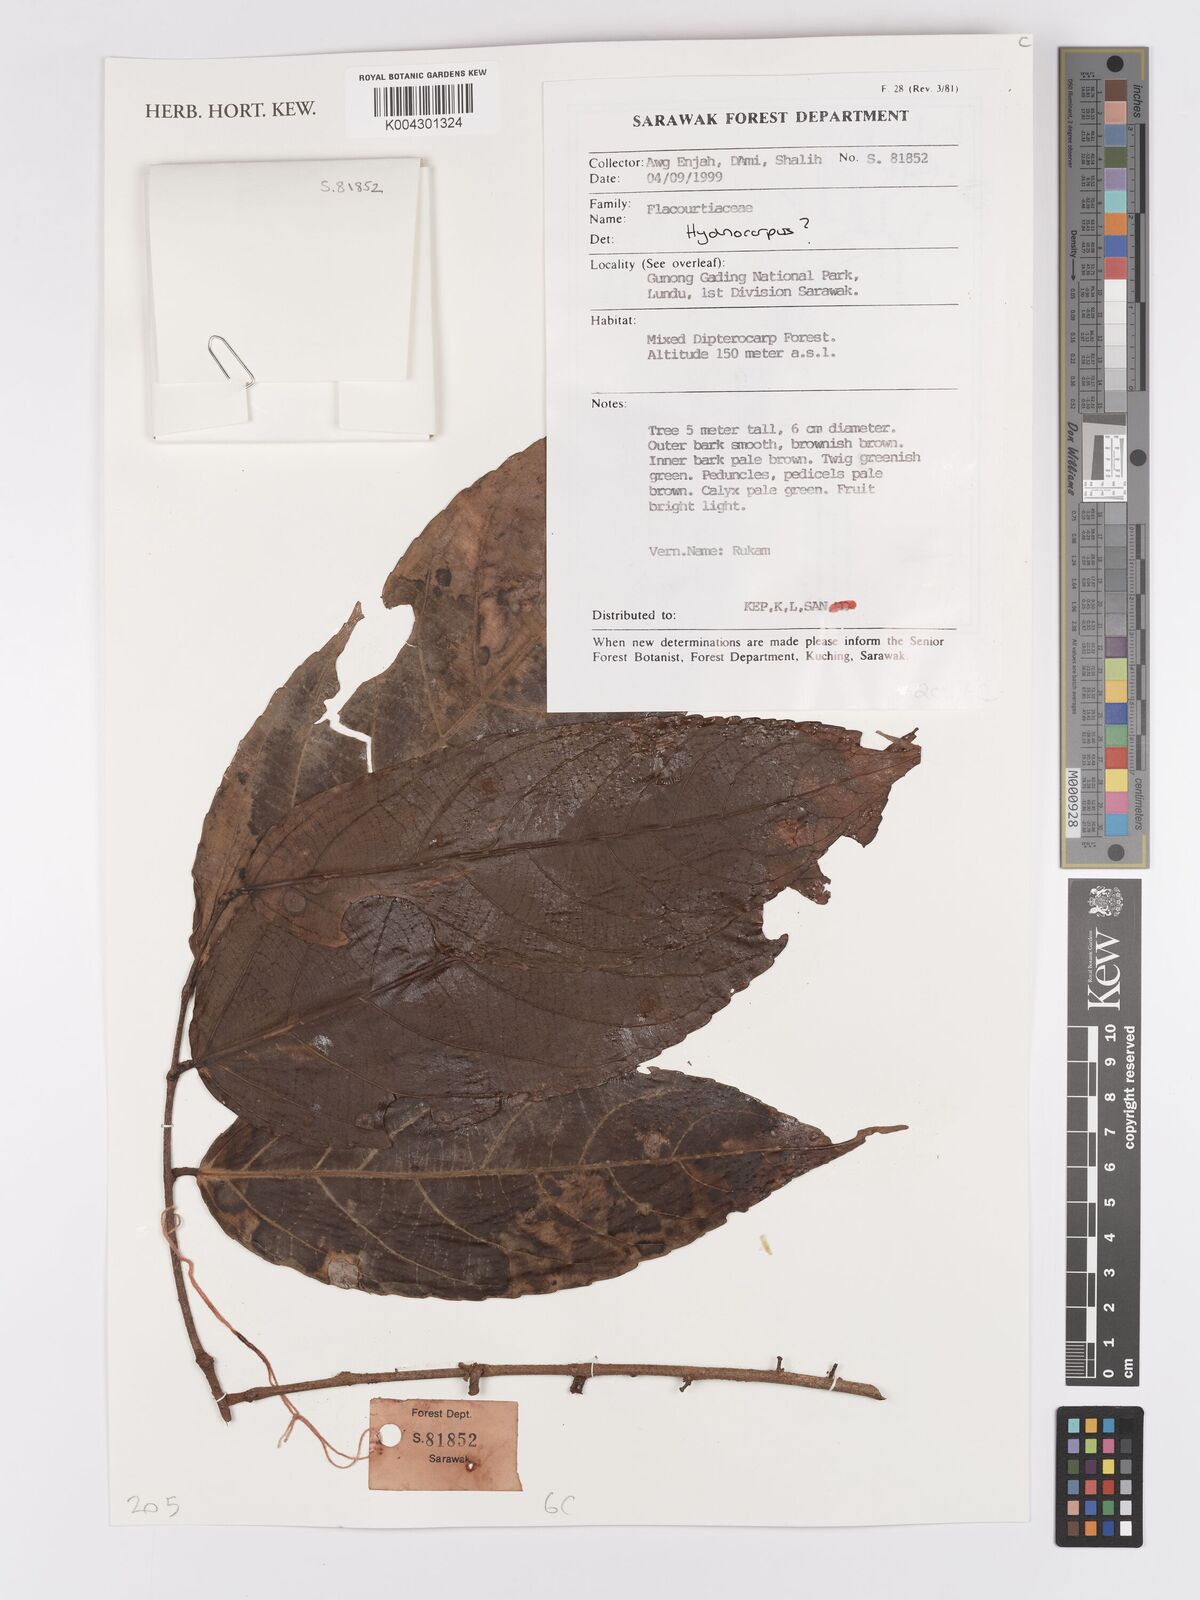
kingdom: Plantae
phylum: Tracheophyta
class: Magnoliopsida
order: Malpighiales
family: Achariaceae
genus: Hydnocarpus
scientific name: Hydnocarpus
